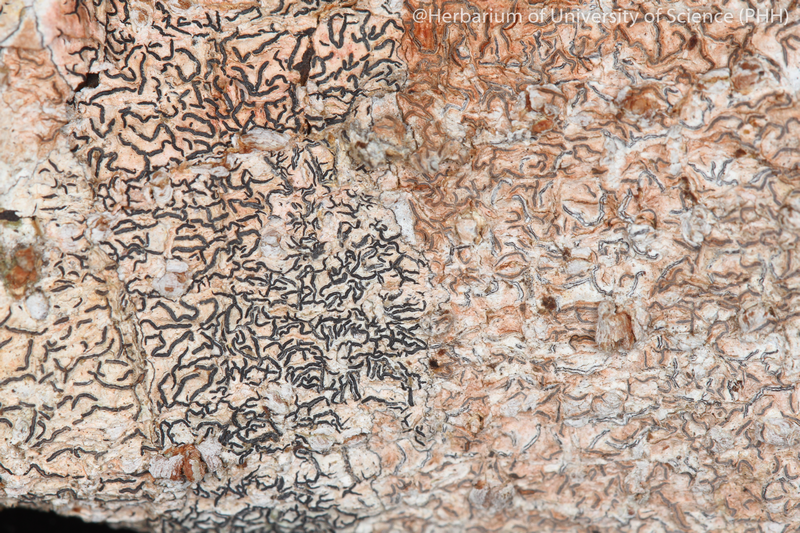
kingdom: Fungi
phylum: Ascomycota
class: Lecanoromycetes
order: Ostropales
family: Graphidaceae
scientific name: Graphidaceae
